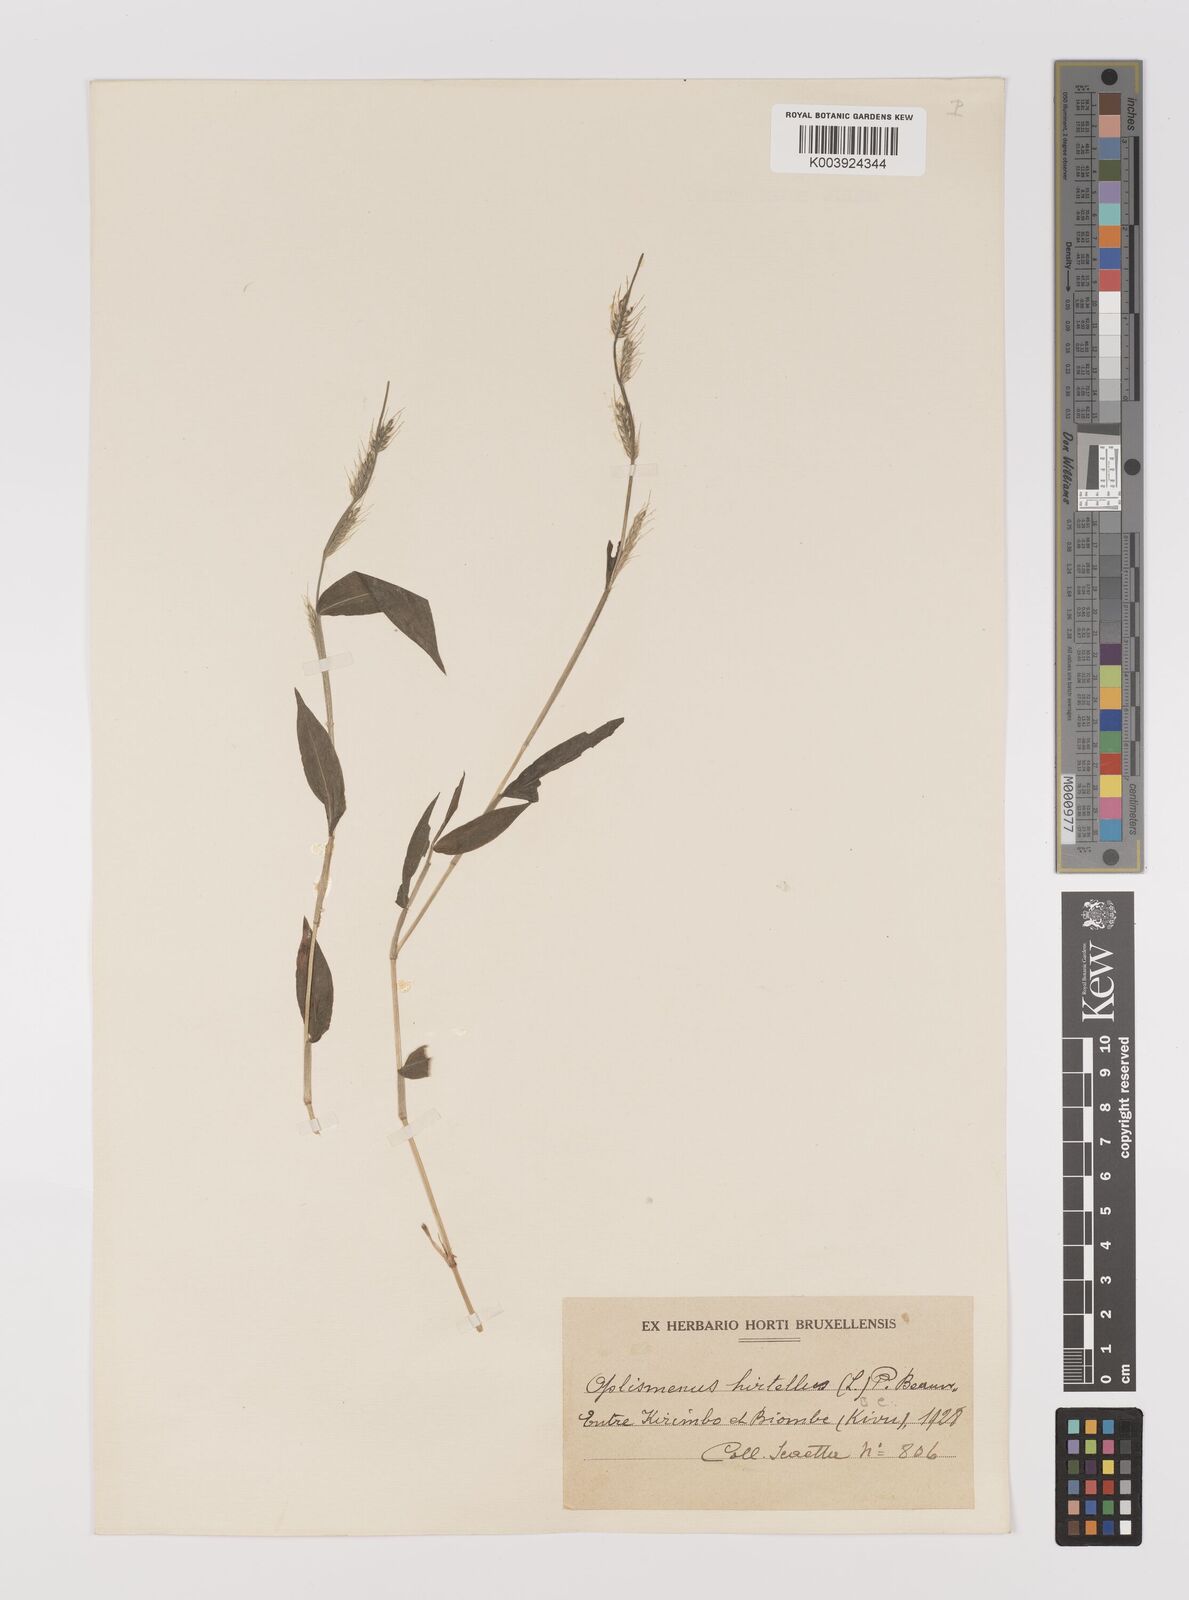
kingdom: Plantae
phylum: Tracheophyta
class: Liliopsida
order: Poales
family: Poaceae
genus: Oplismenus
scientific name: Oplismenus hirtellus
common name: Basketgrass
